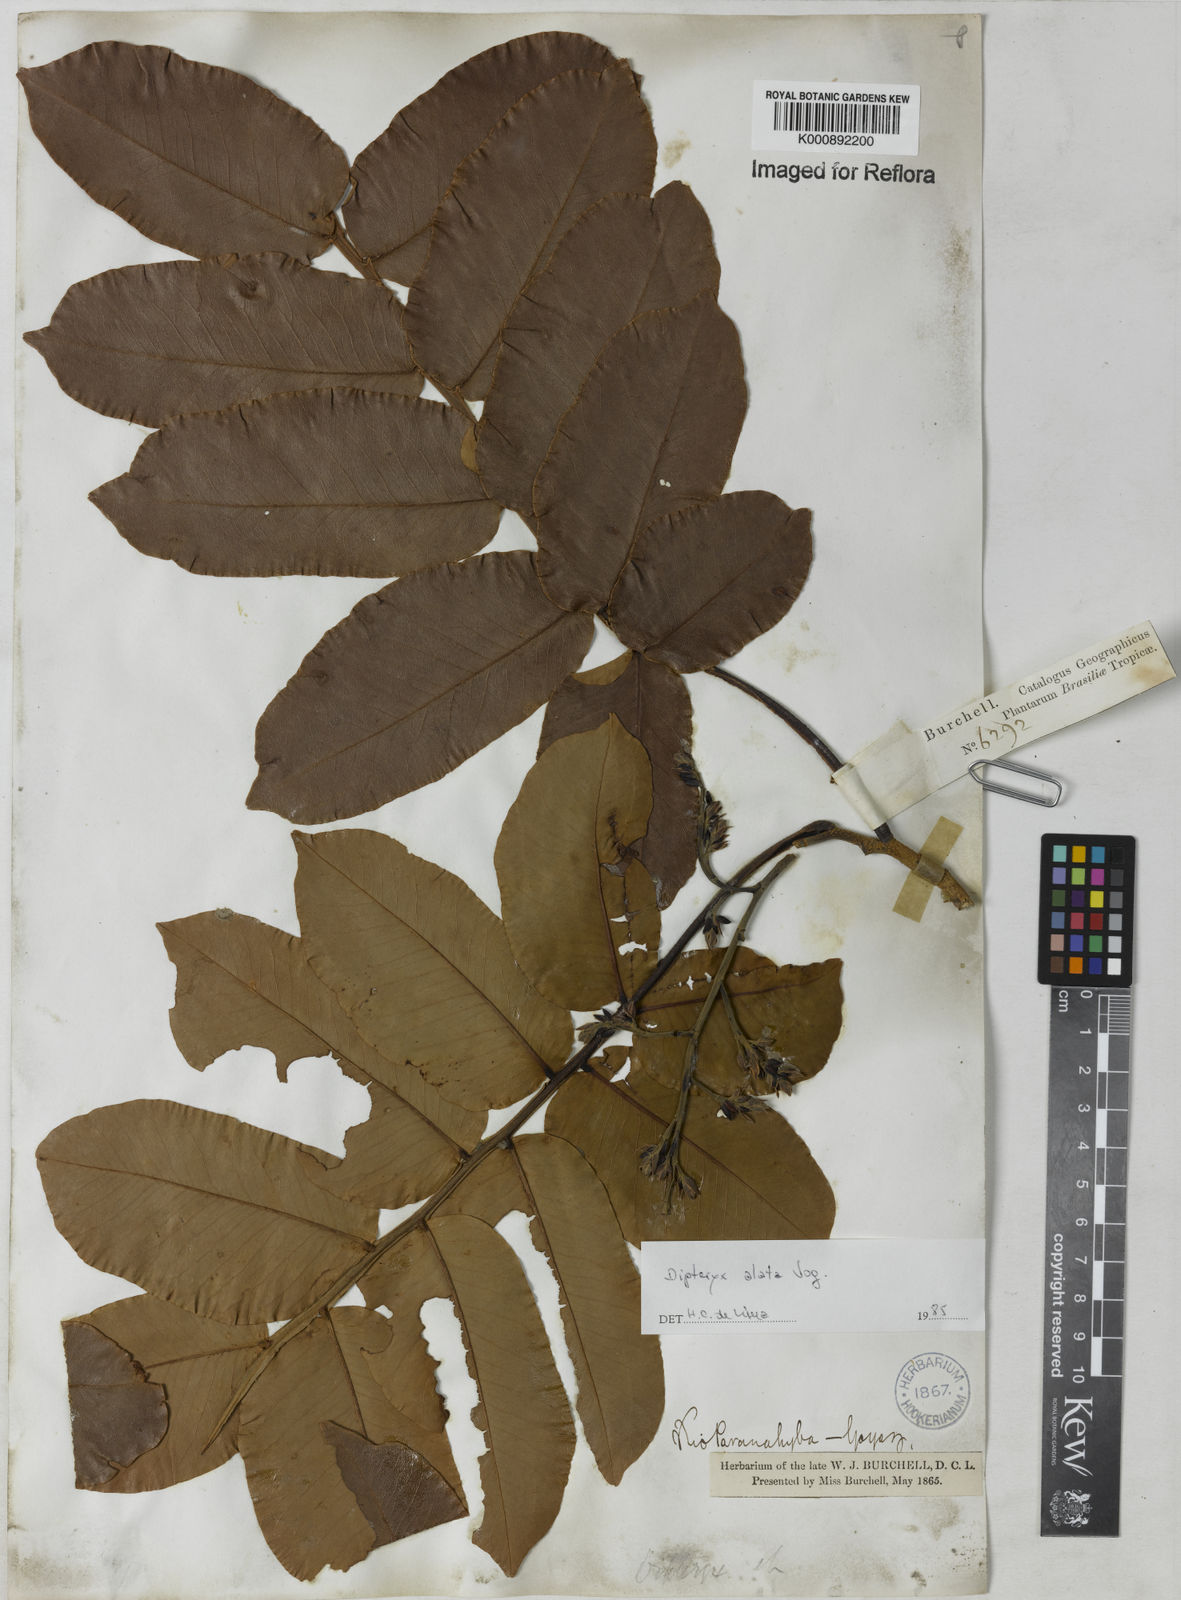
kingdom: Plantae
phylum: Tracheophyta
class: Magnoliopsida
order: Fabales
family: Fabaceae
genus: Dipteryx
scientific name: Dipteryx alata
